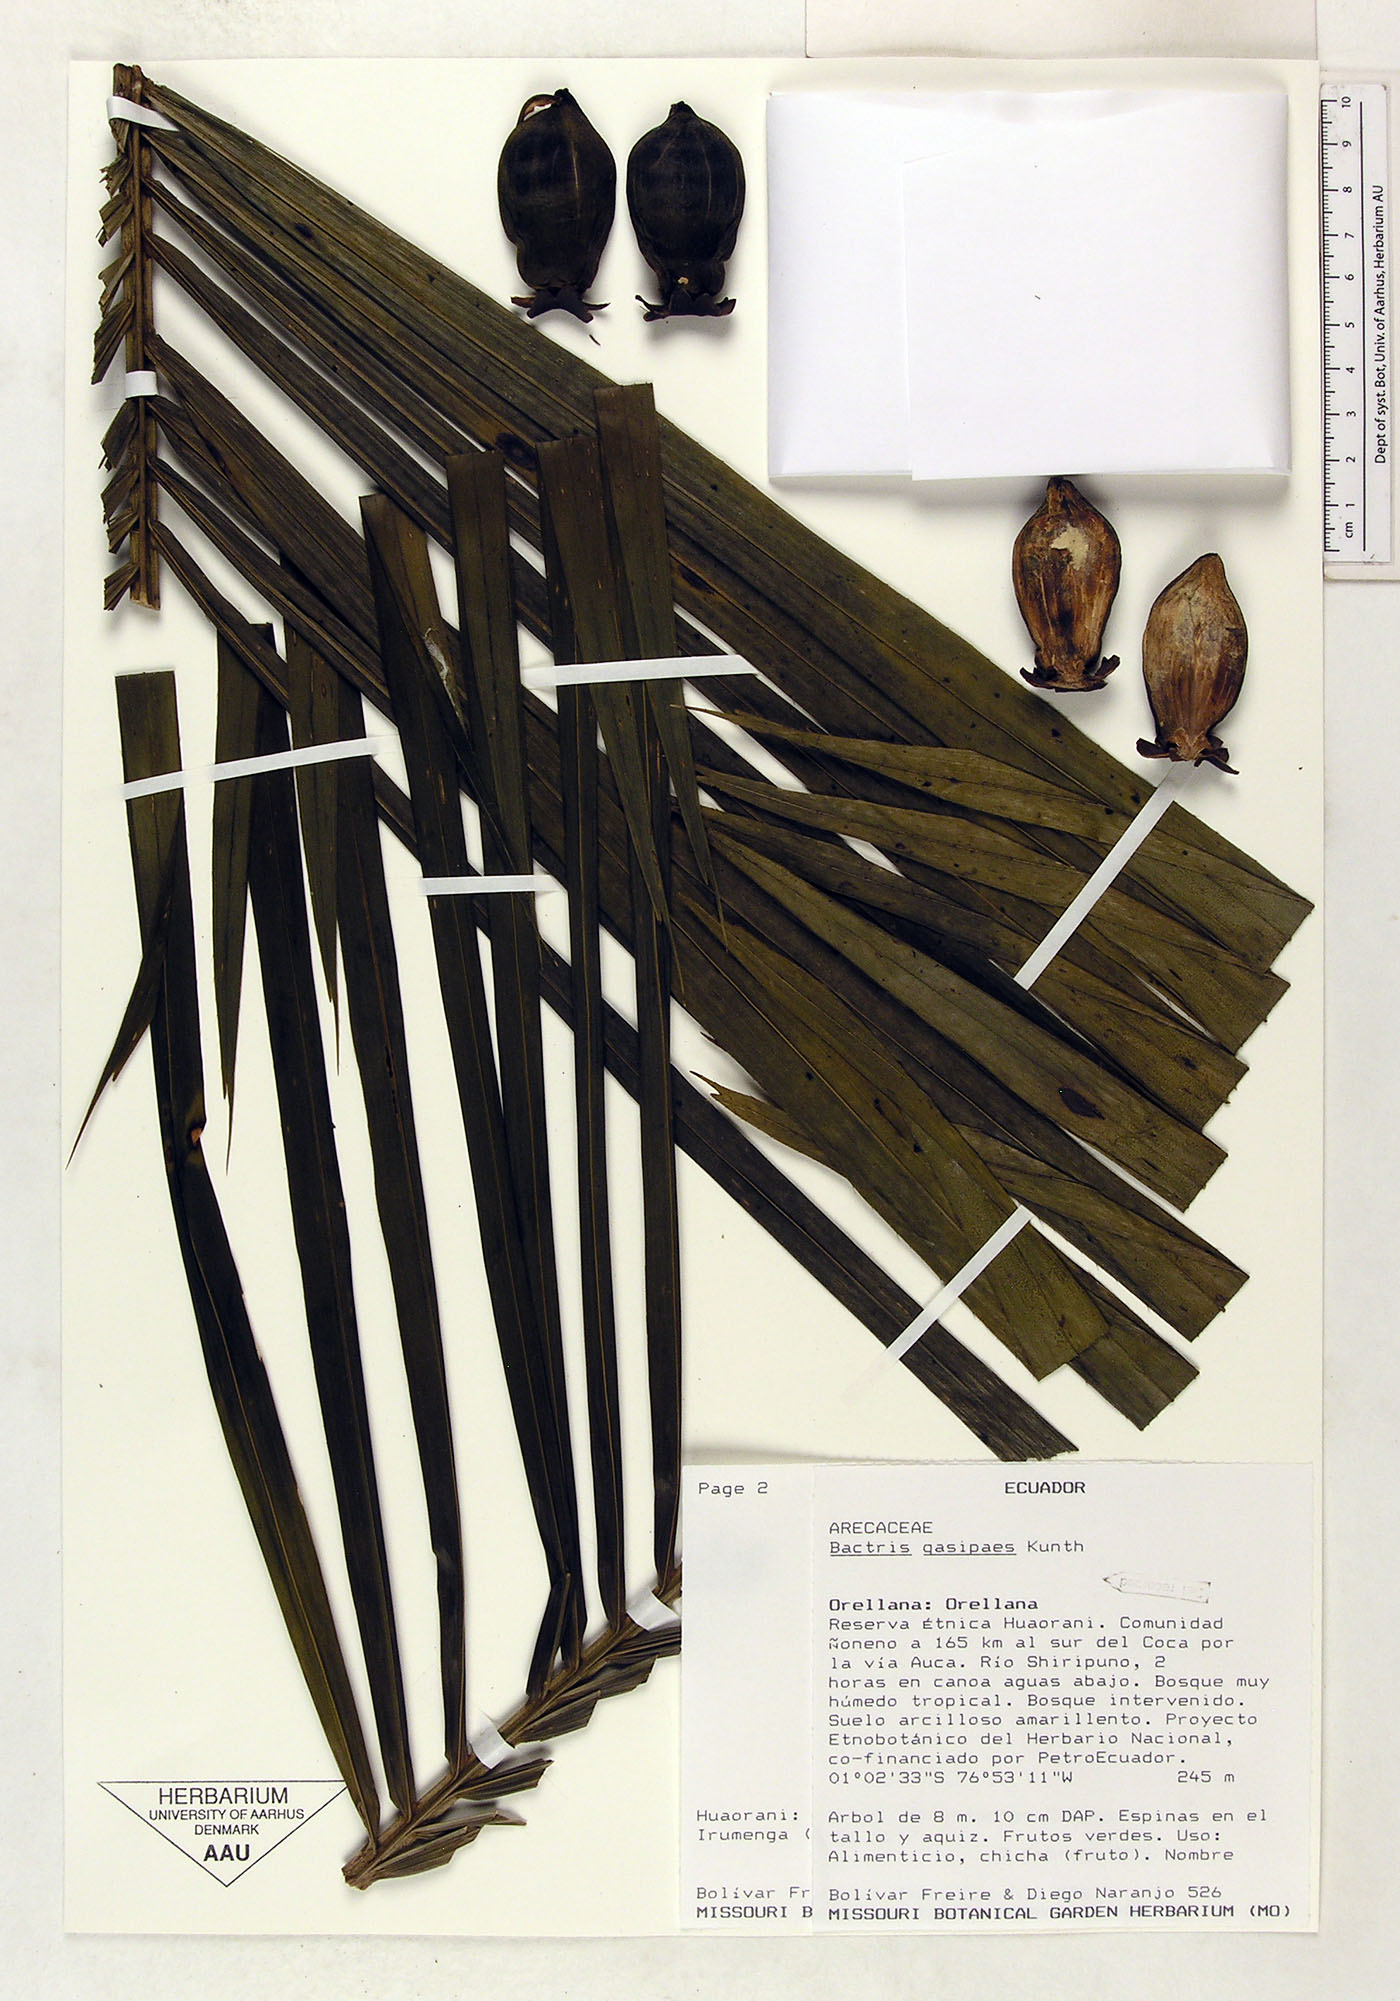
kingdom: Plantae
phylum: Tracheophyta
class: Liliopsida
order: Arecales
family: Arecaceae
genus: Bactris
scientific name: Bactris gasipaes
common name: Peach palm
